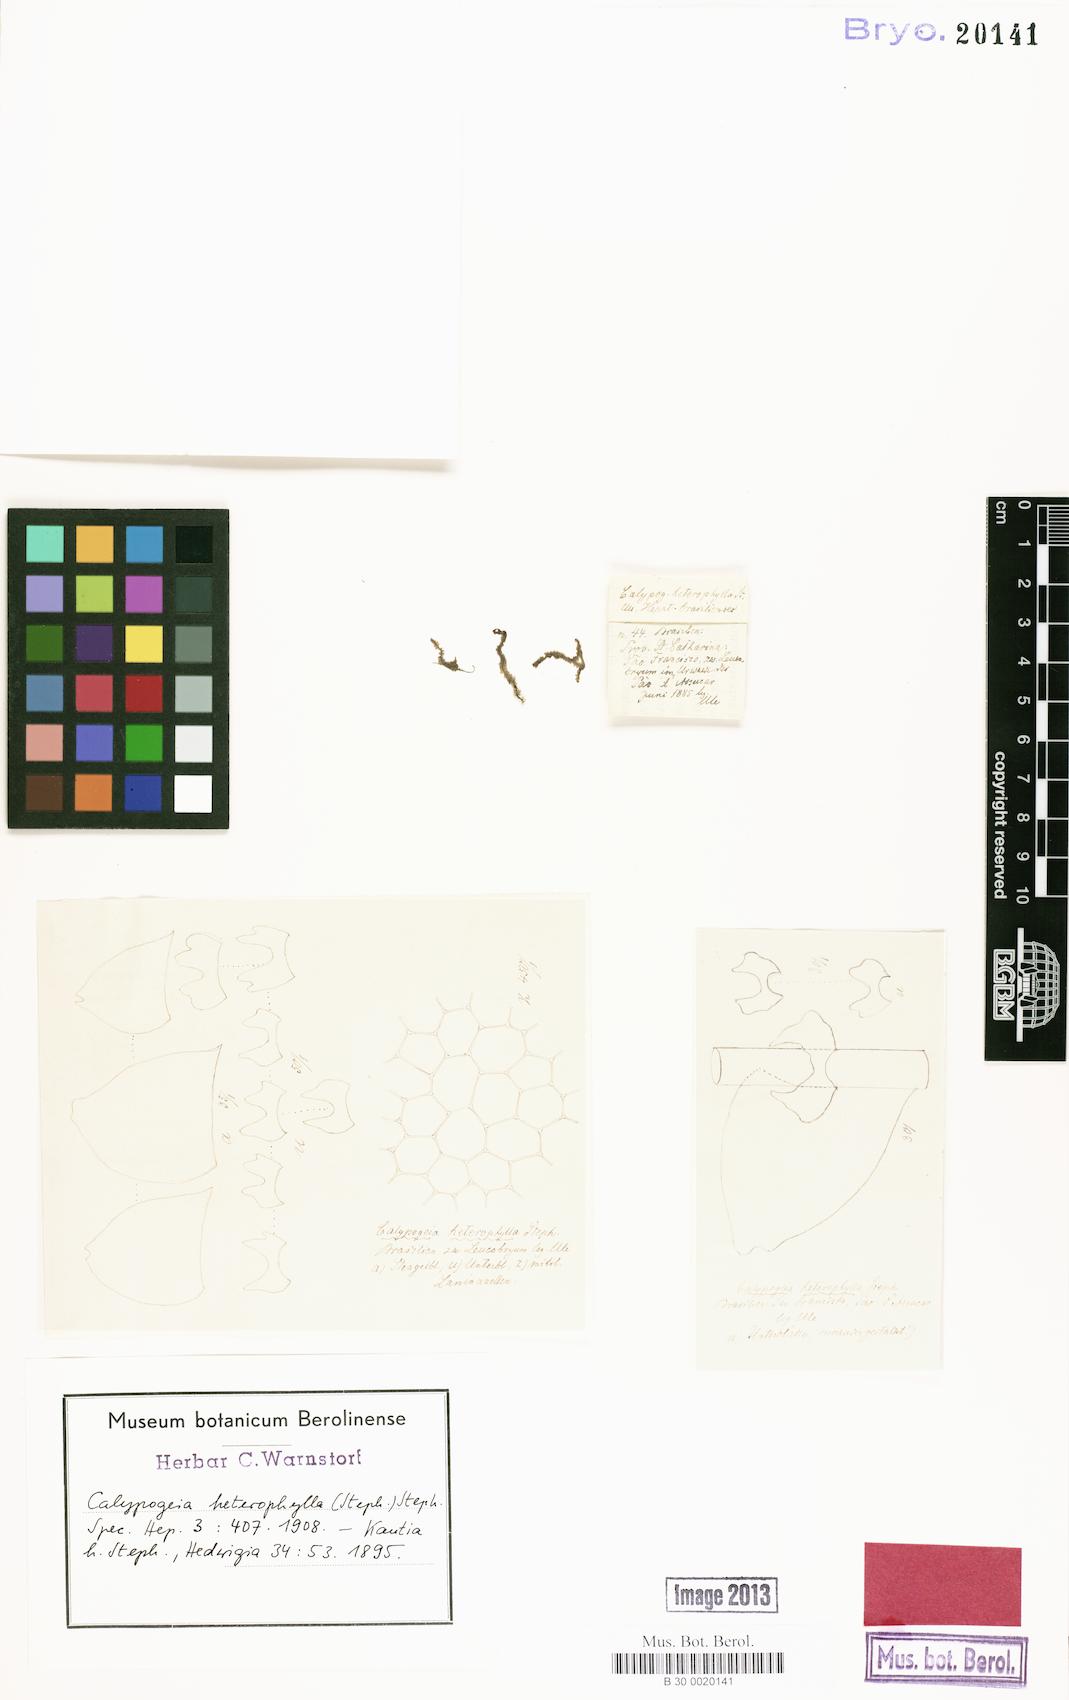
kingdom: Plantae
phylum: Marchantiophyta
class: Jungermanniopsida
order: Jungermanniales
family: Calypogeiaceae
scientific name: Calypogeiaceae
